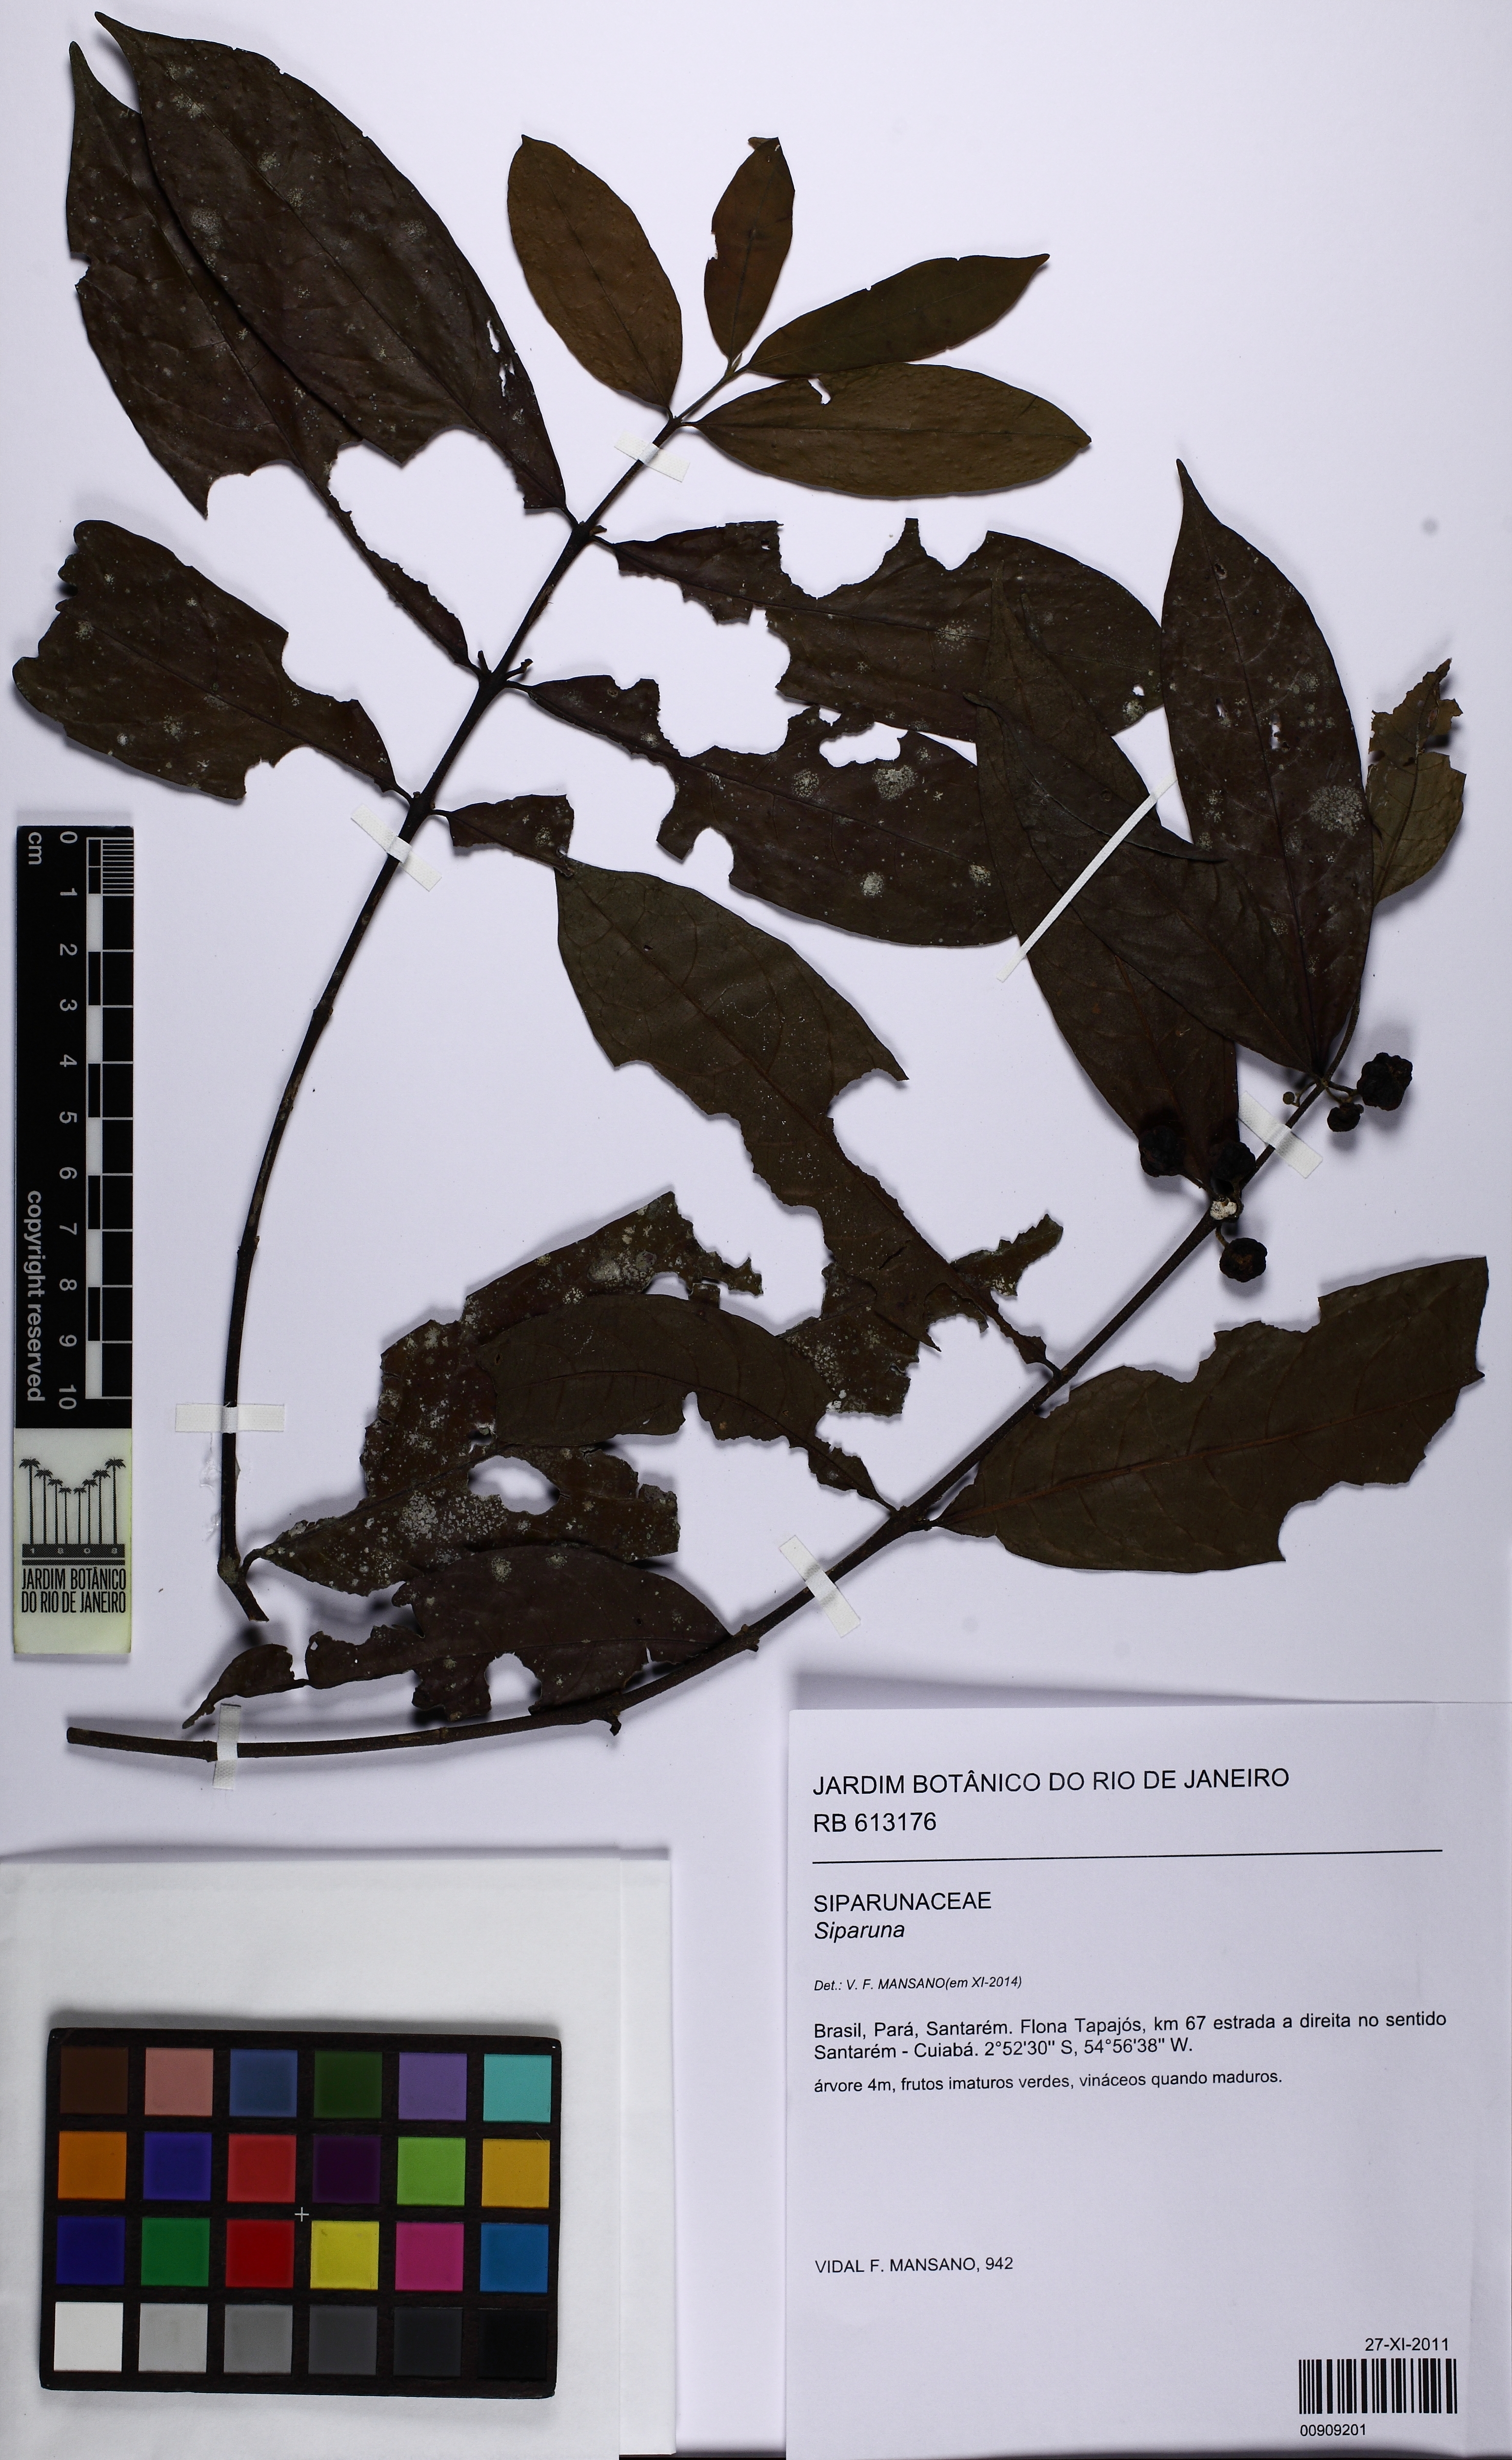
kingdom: Plantae
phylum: Tracheophyta
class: Magnoliopsida
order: Laurales
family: Siparunaceae
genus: Siparuna
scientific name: Siparuna
